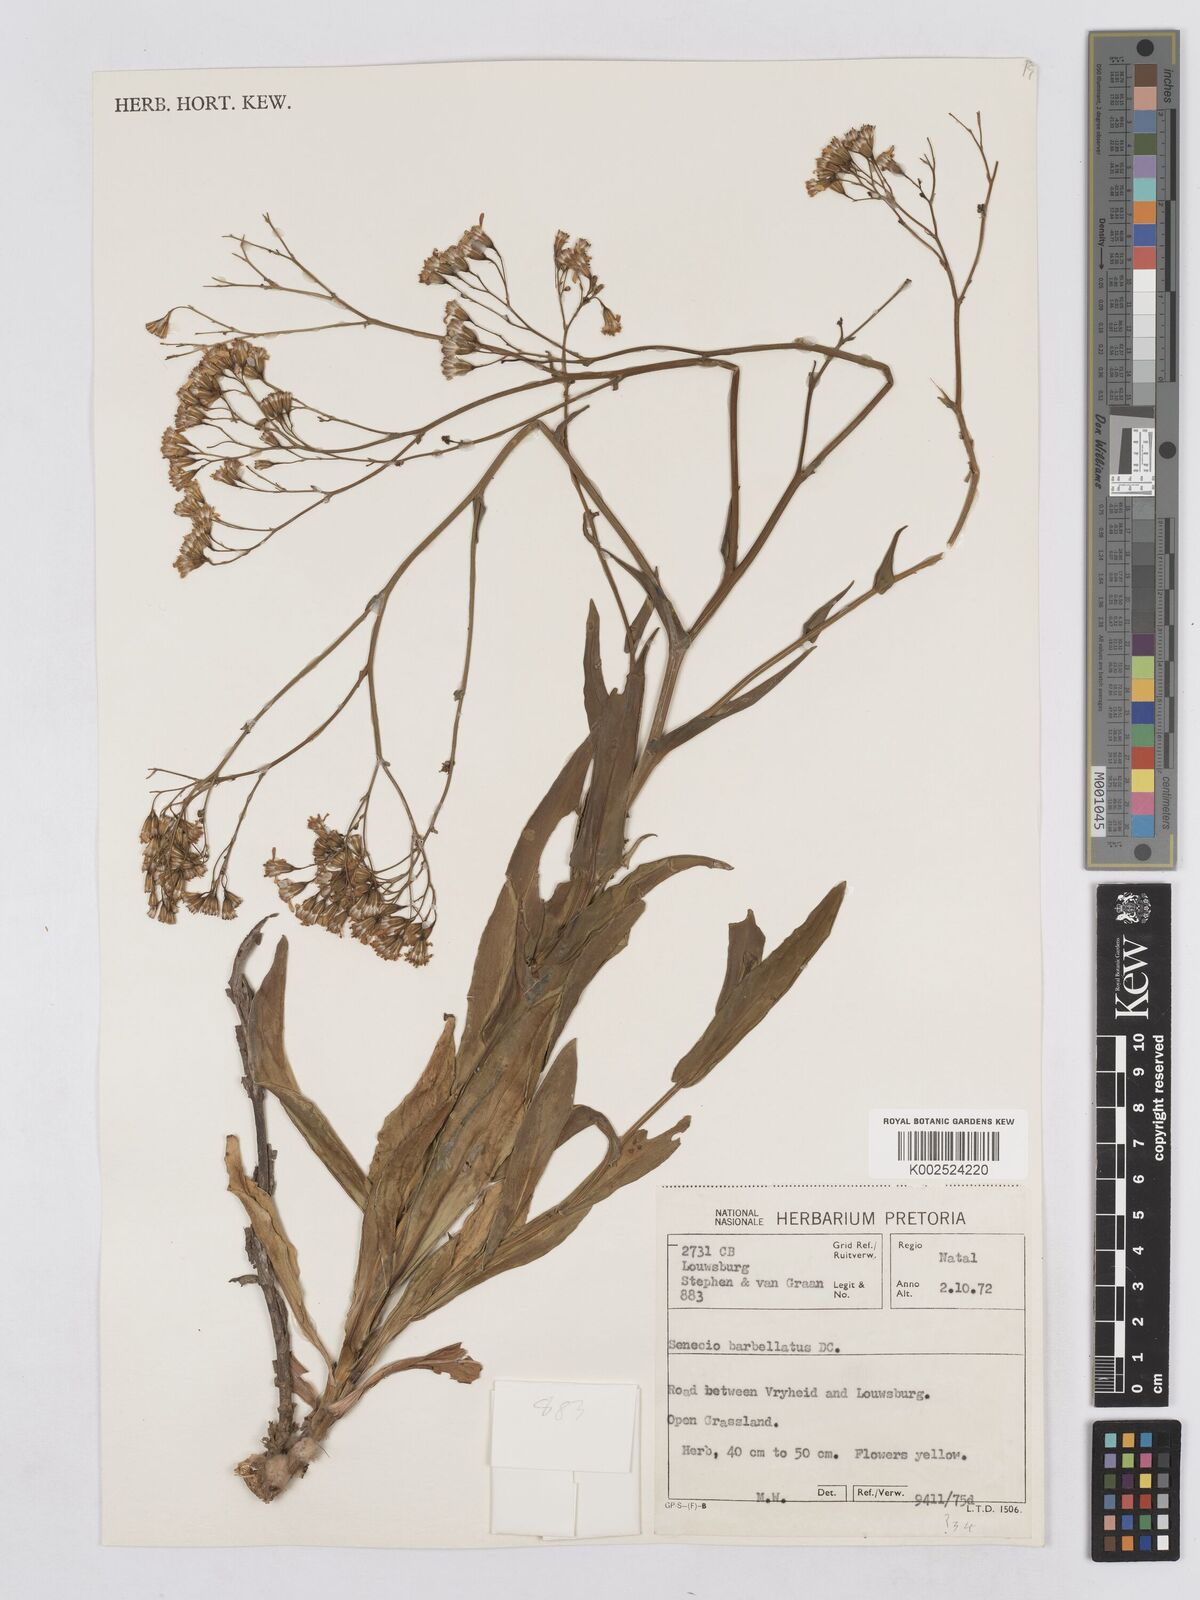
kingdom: Plantae
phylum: Tracheophyta
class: Magnoliopsida
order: Asterales
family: Asteraceae
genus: Senecio
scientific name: Senecio retrorsus
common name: Ragwort
